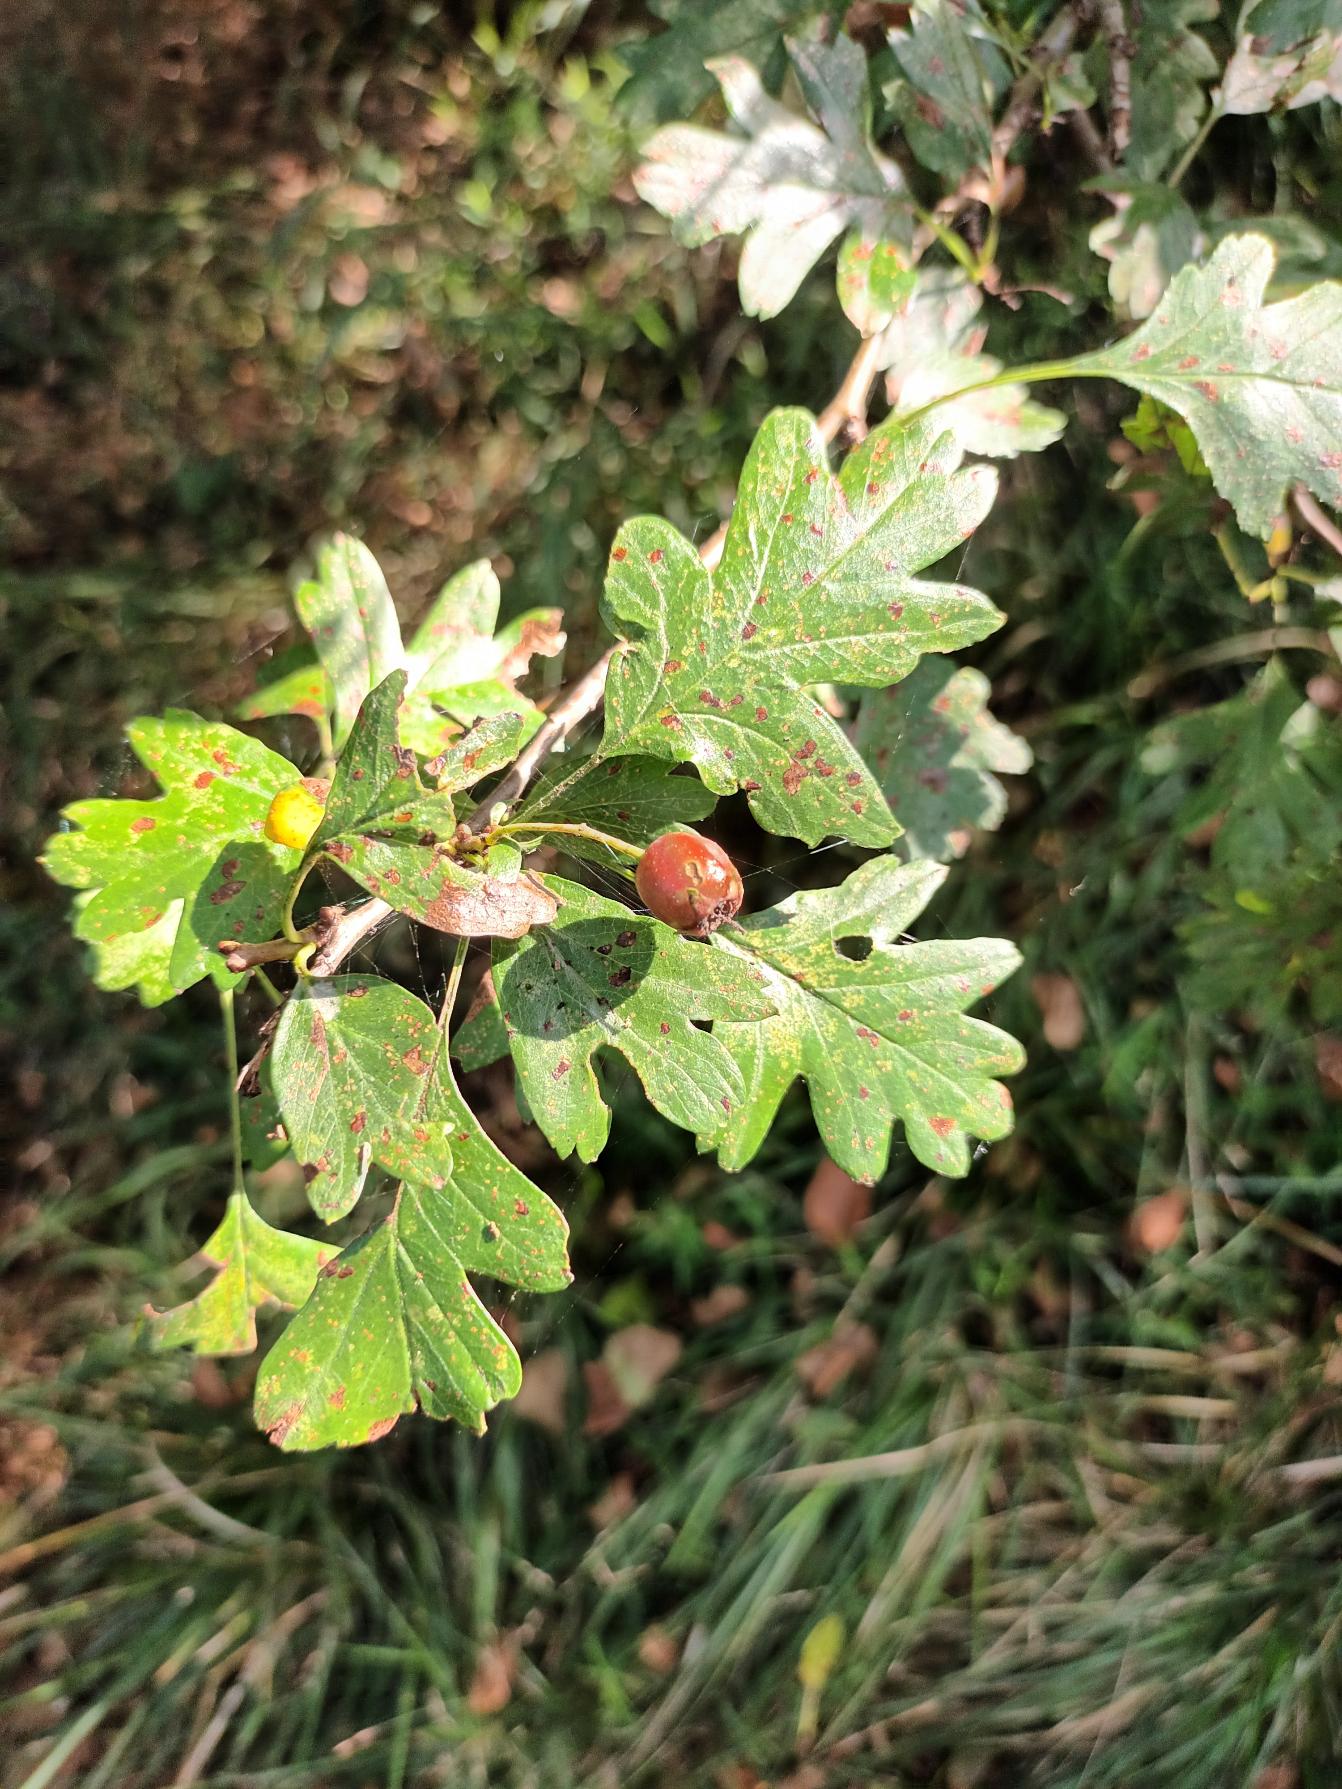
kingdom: Plantae
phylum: Tracheophyta
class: Magnoliopsida
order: Rosales
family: Rosaceae
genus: Crataegus
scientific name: Crataegus monogyna
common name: Engriflet hvidtjørn
